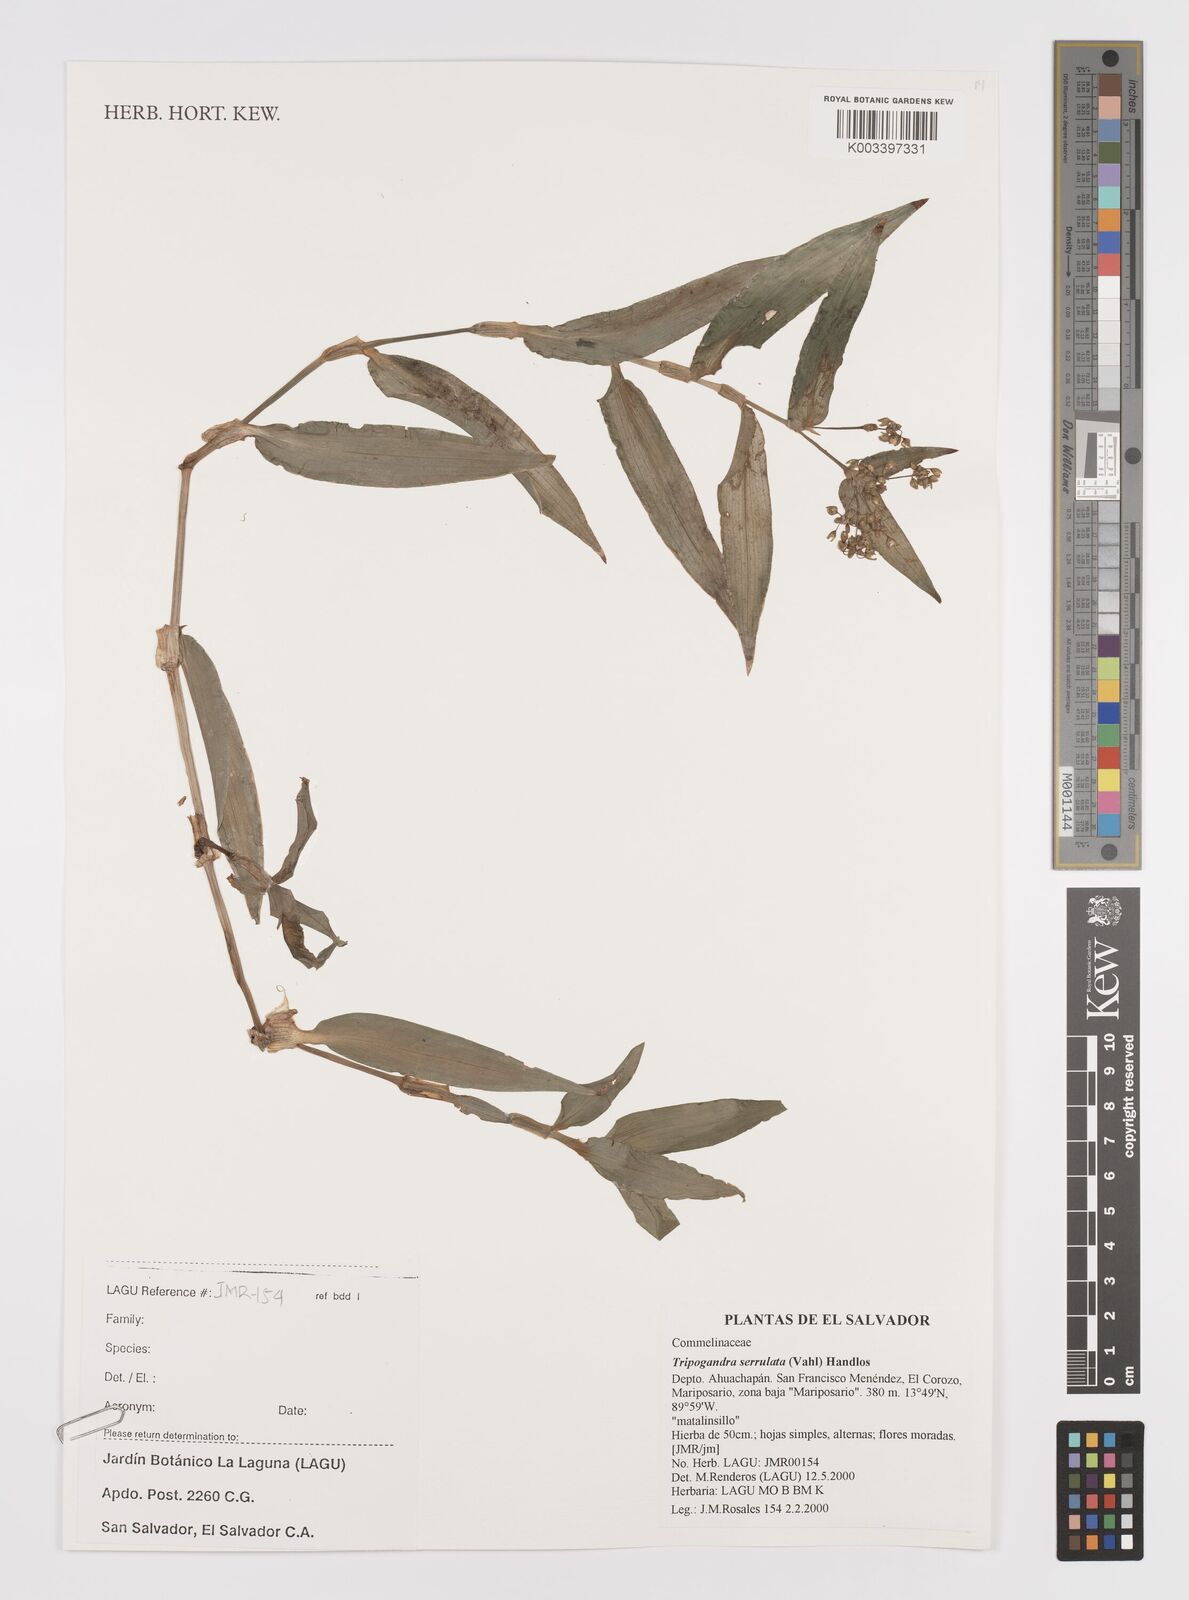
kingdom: Plantae
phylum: Tracheophyta
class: Liliopsida
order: Commelinales
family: Commelinaceae
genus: Callisia
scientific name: Callisia serrulata
